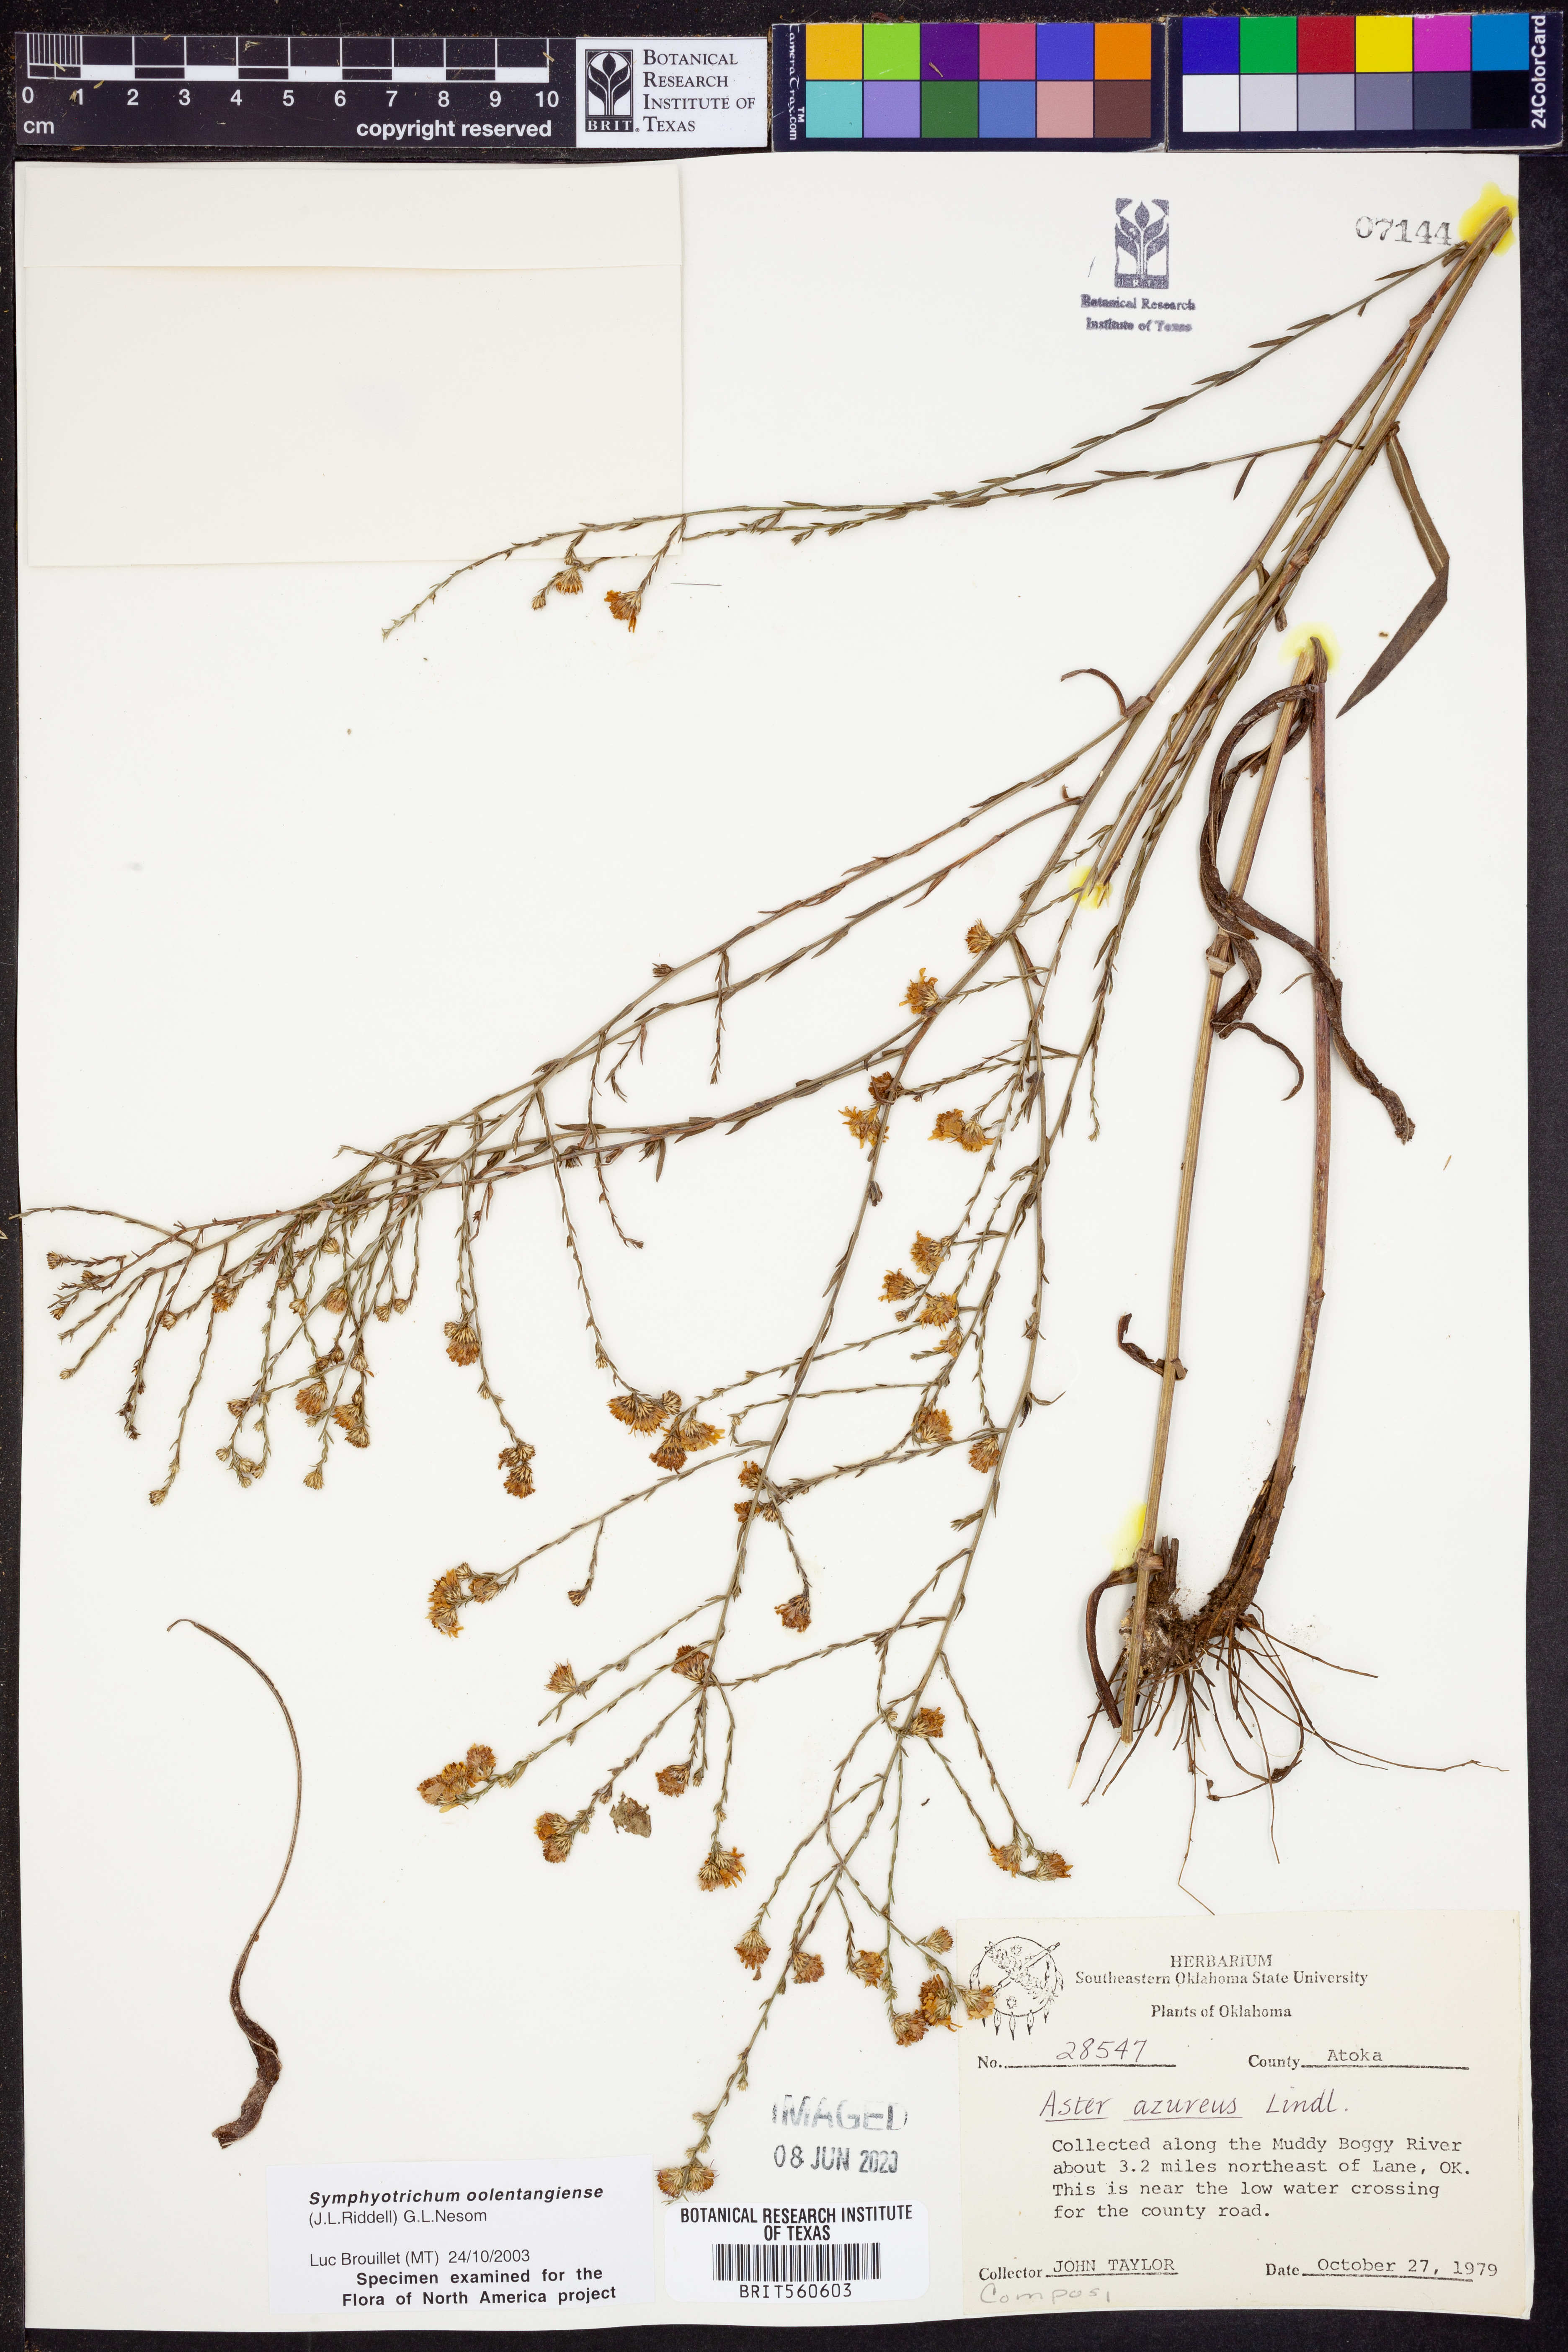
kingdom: Plantae
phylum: Tracheophyta
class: Magnoliopsida
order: Asterales
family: Asteraceae
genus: Symphyotrichum
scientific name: Symphyotrichum oolentangiense
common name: Azure aster
